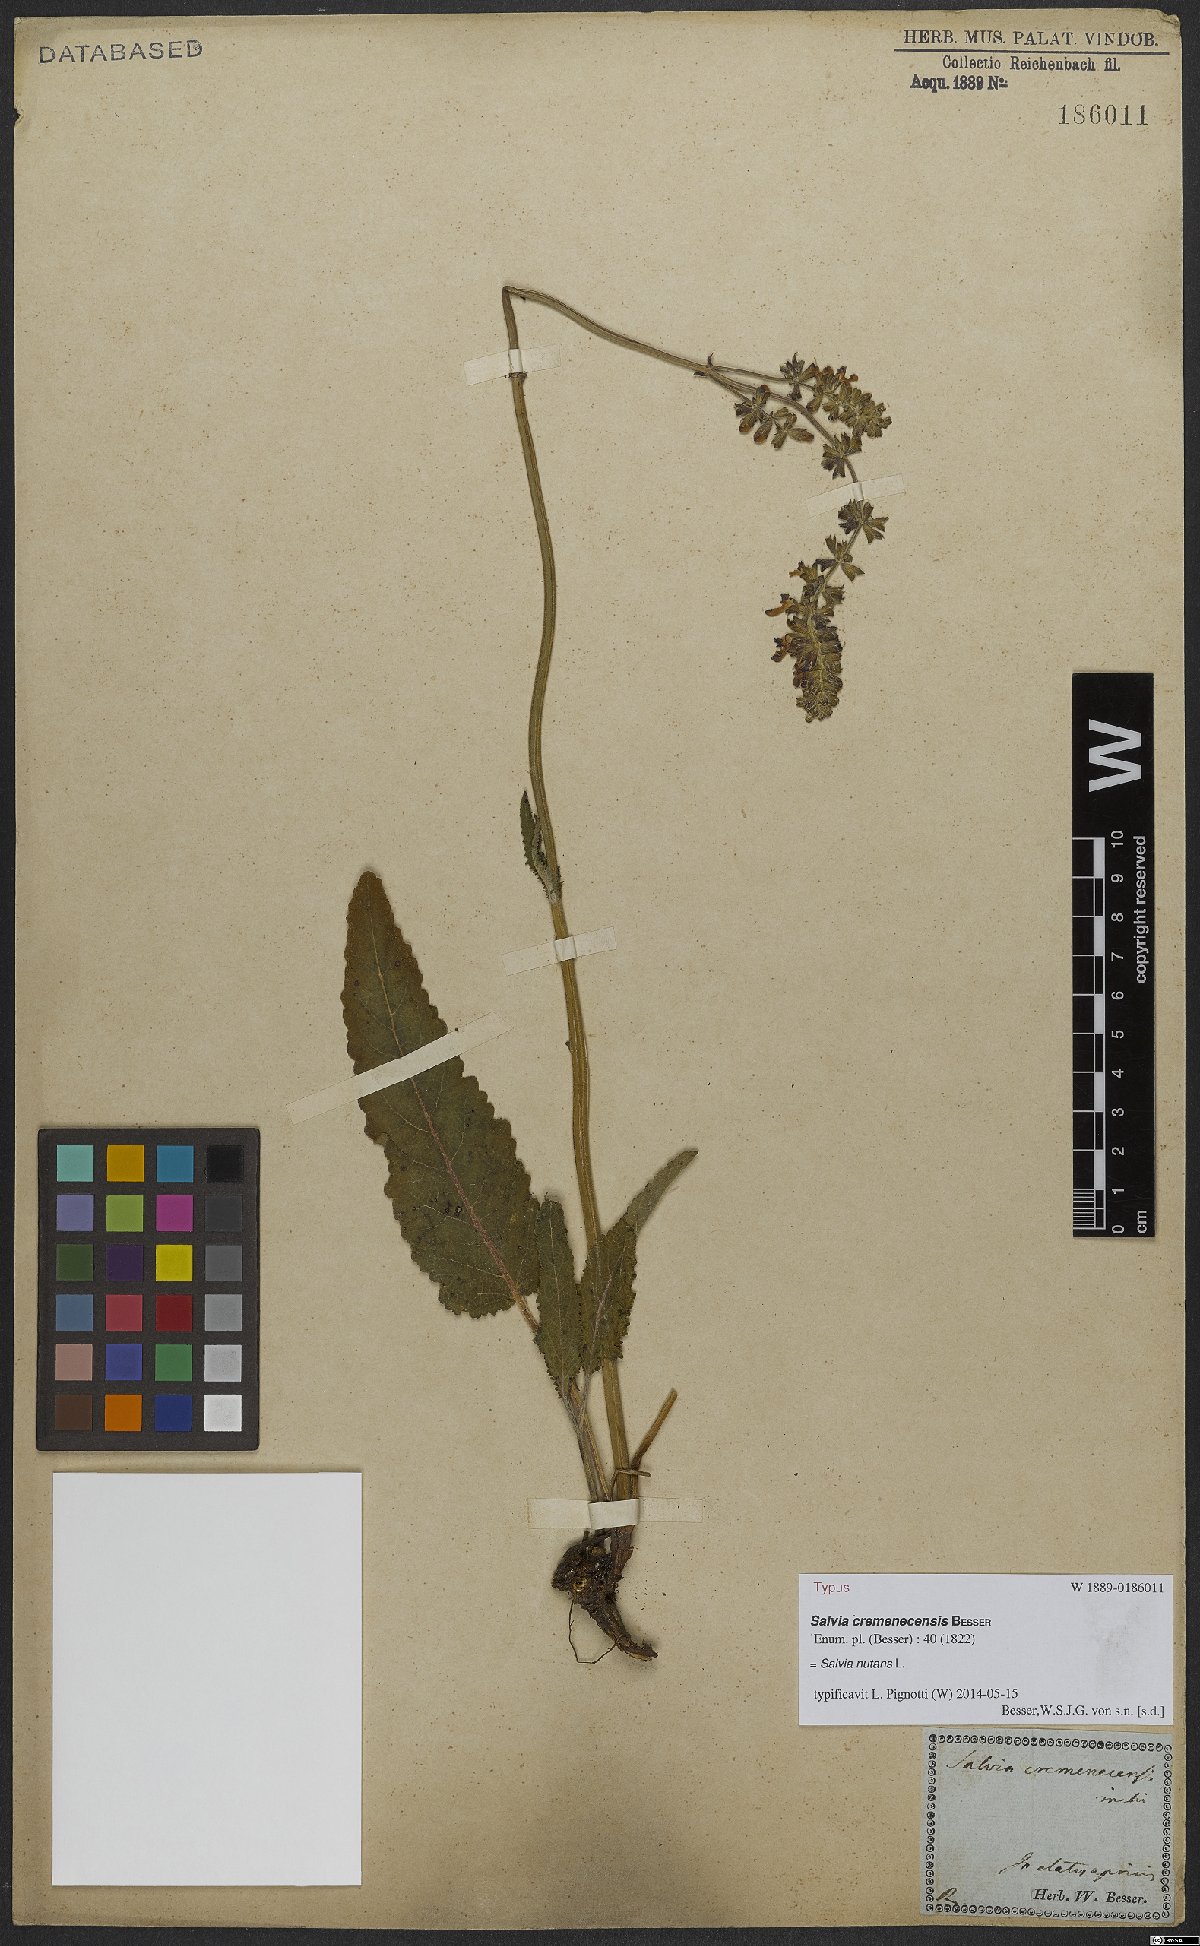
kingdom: Plantae
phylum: Tracheophyta
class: Magnoliopsida
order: Lamiales
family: Lamiaceae
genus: Salvia
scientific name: Salvia nutans
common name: Nodding sage
